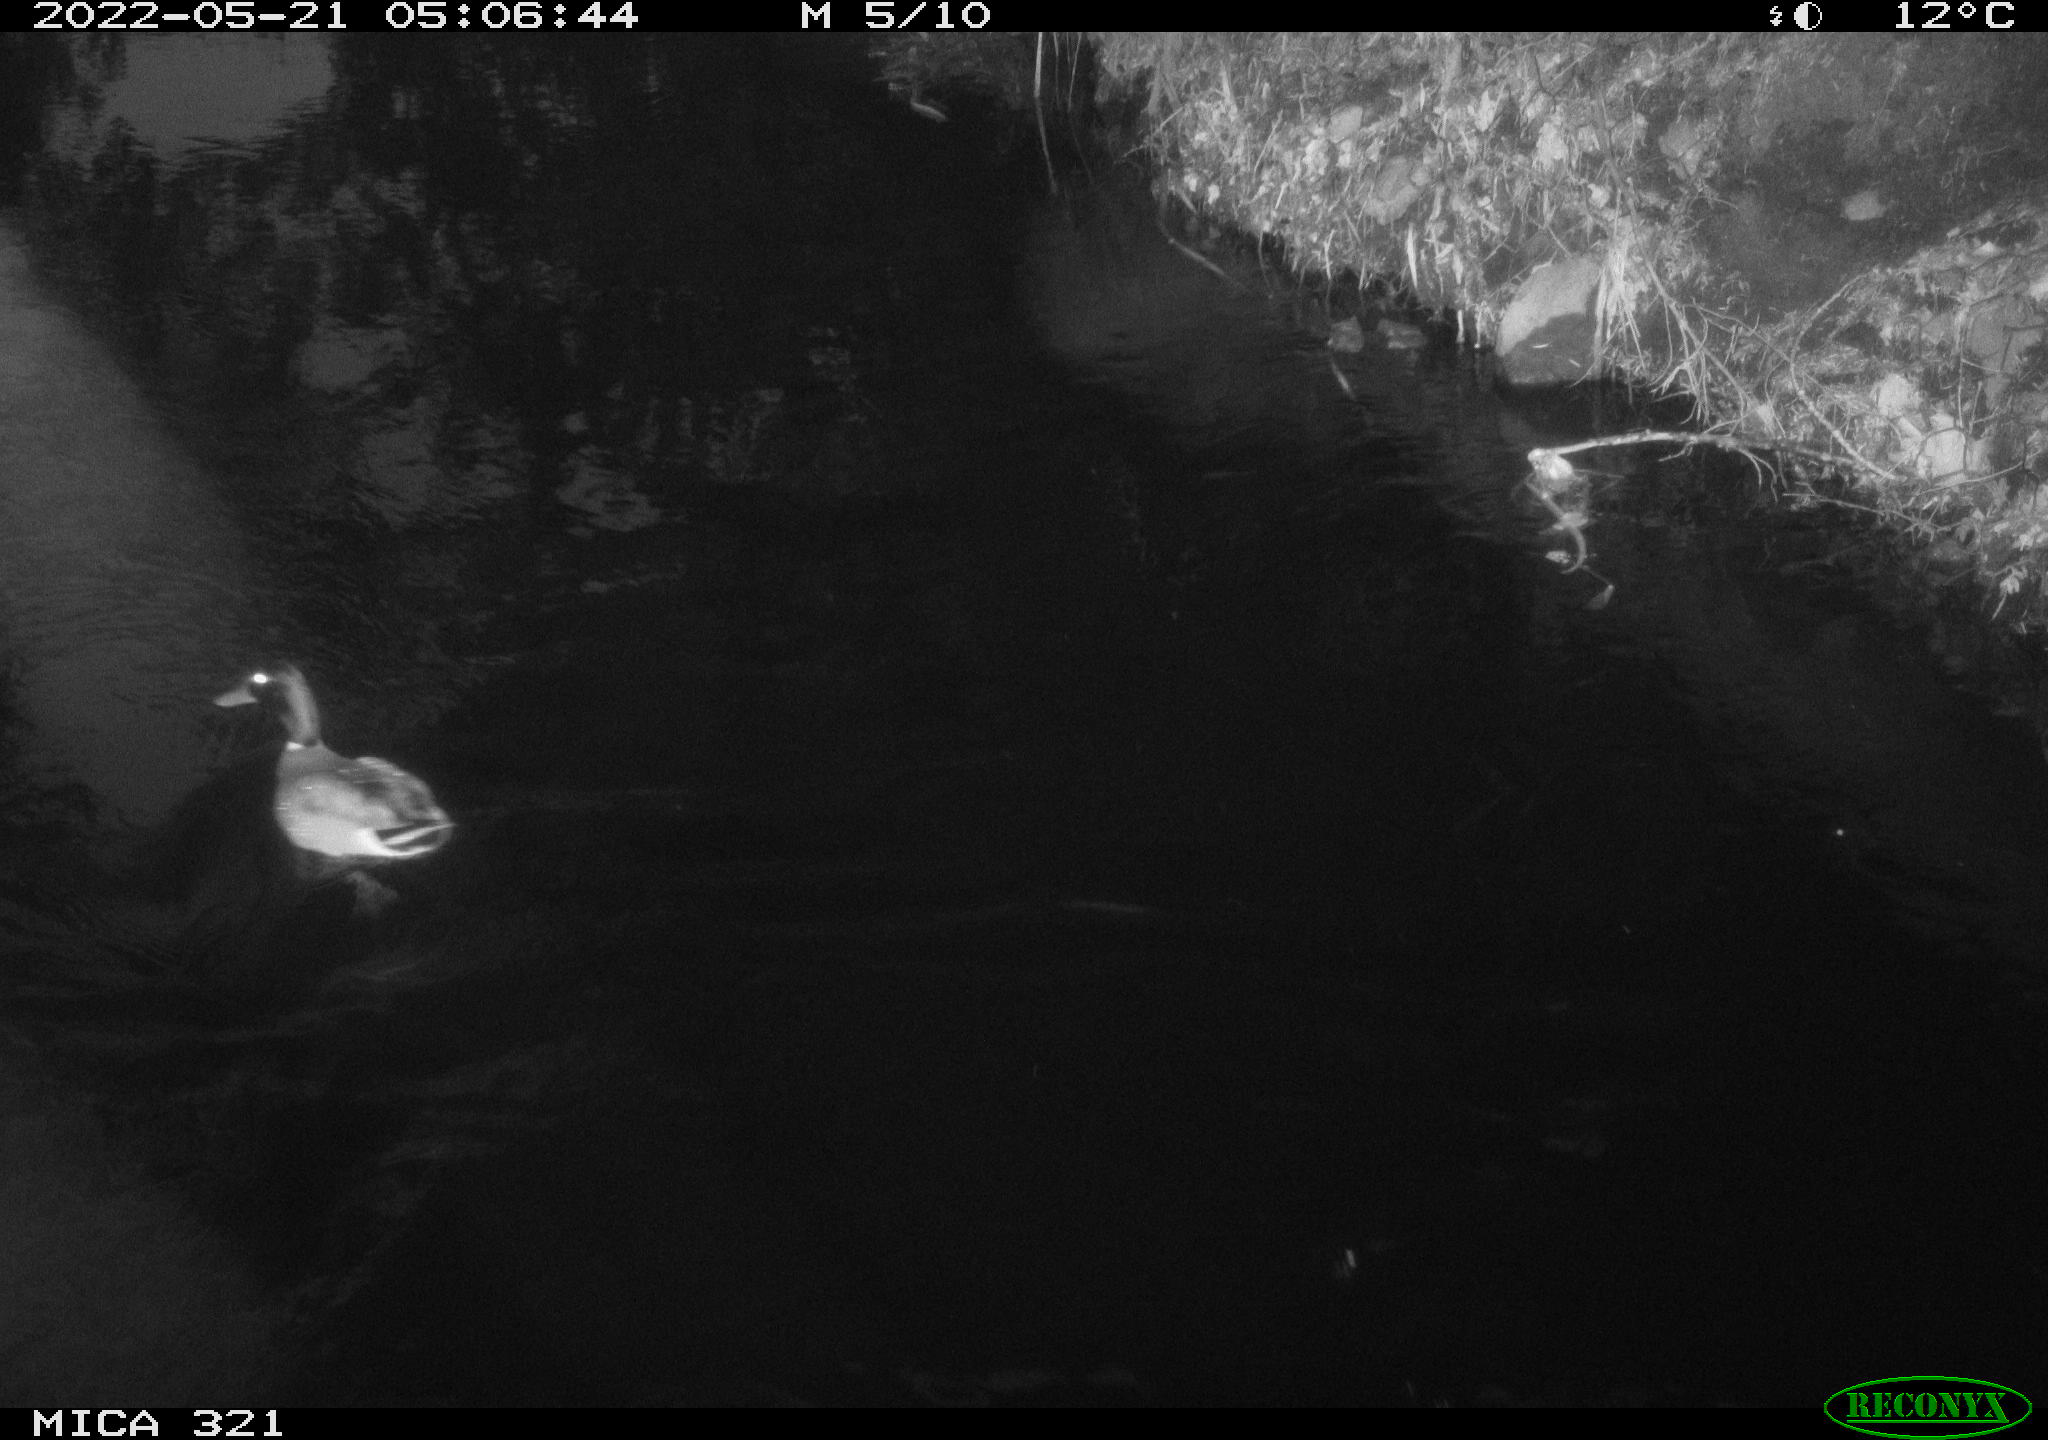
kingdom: Animalia
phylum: Chordata
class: Aves
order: Anseriformes
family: Anatidae
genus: Anas
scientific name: Anas platyrhynchos
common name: Mallard
